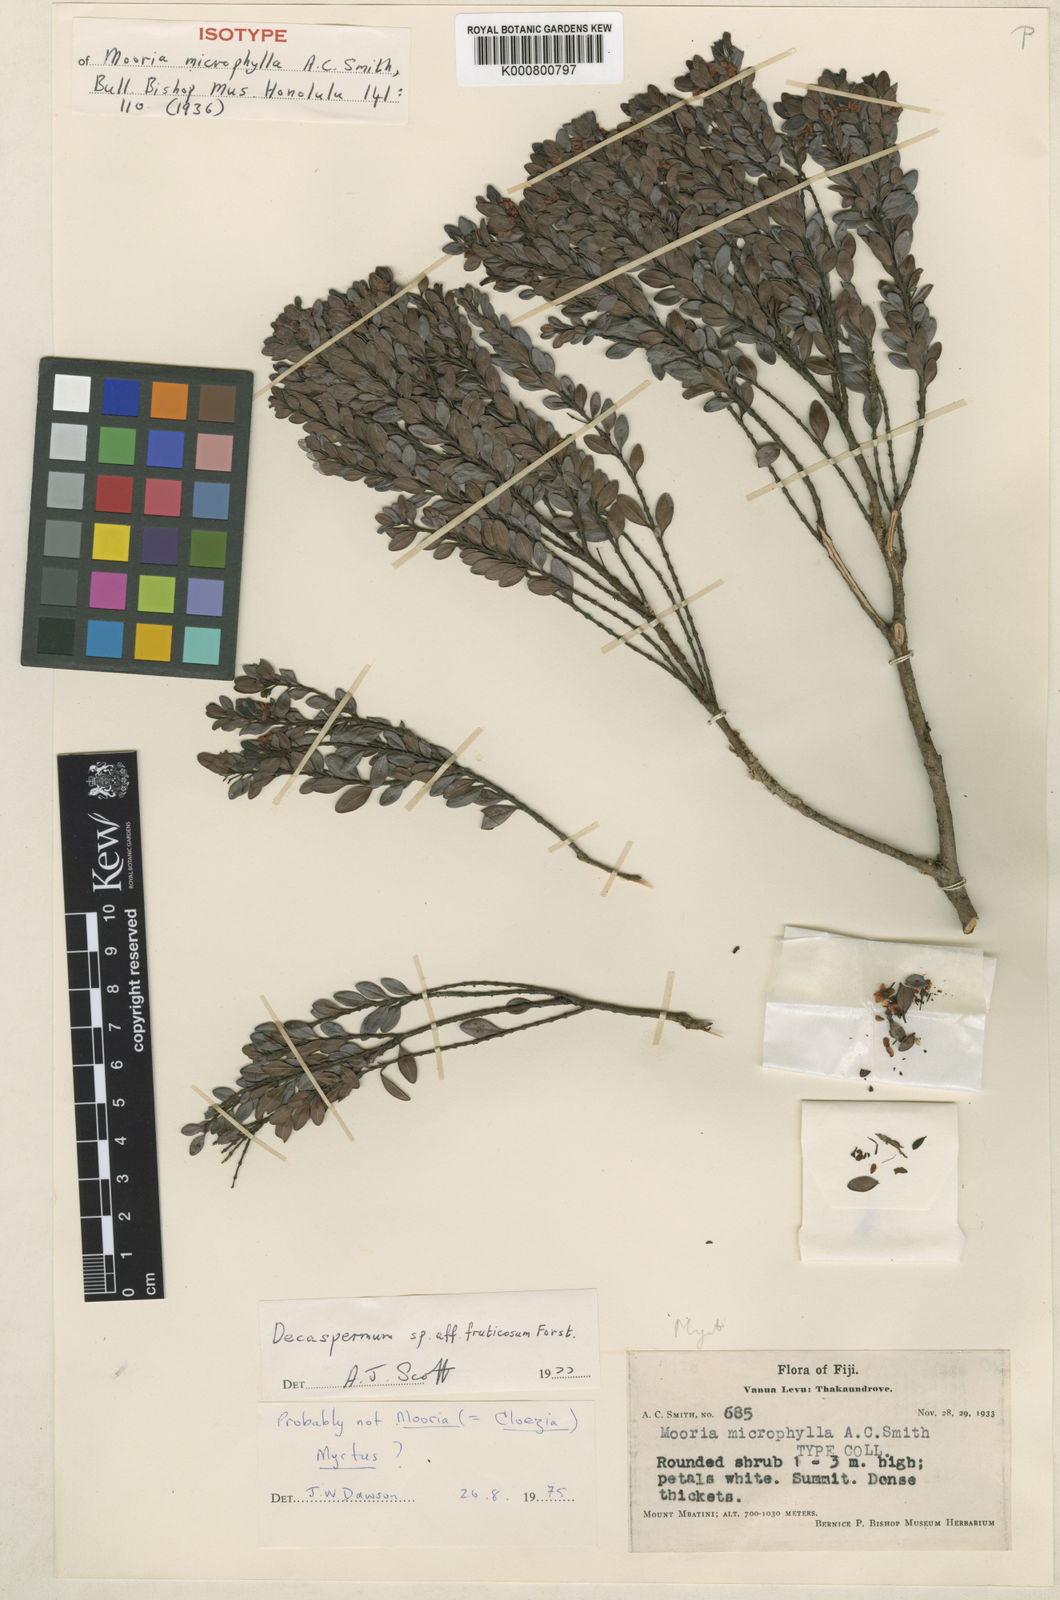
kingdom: Plantae
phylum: Tracheophyta
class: Magnoliopsida
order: Myrtales
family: Myrtaceae
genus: Decaspermum
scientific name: Decaspermum vitis-idaea
